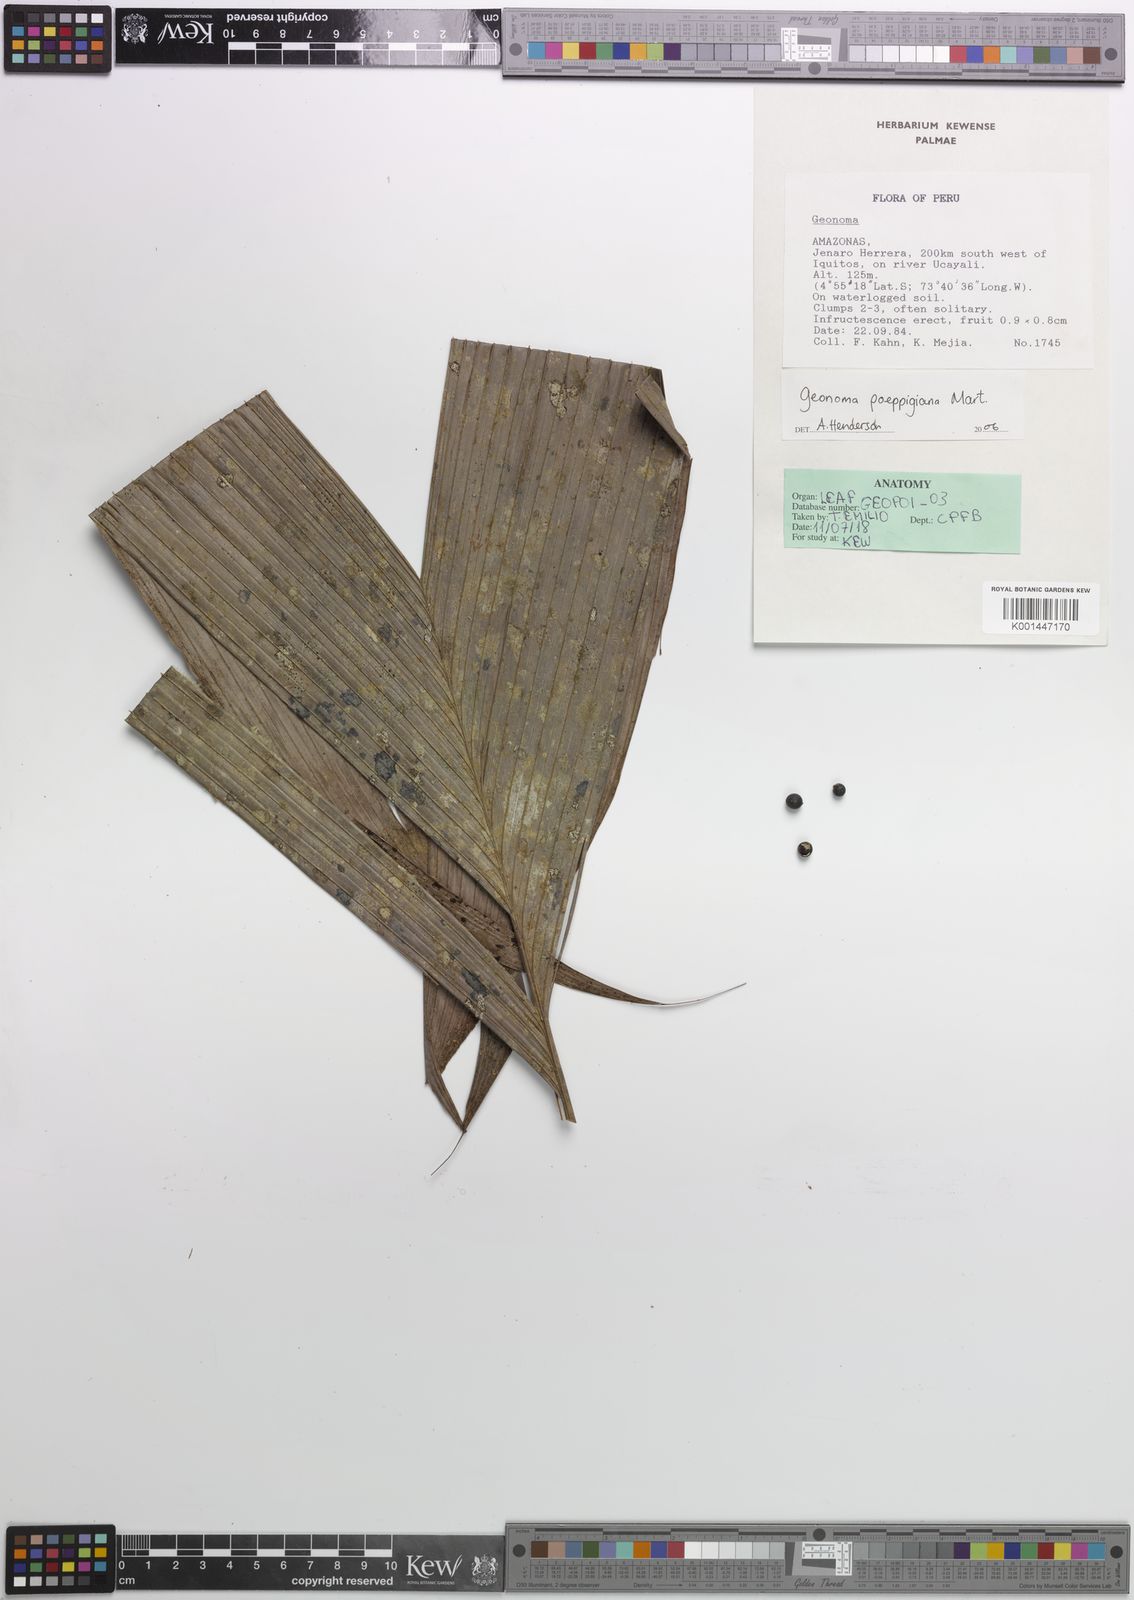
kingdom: Plantae
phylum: Tracheophyta
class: Liliopsida
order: Arecales
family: Arecaceae
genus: Geonoma
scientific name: Geonoma poeppigiana
